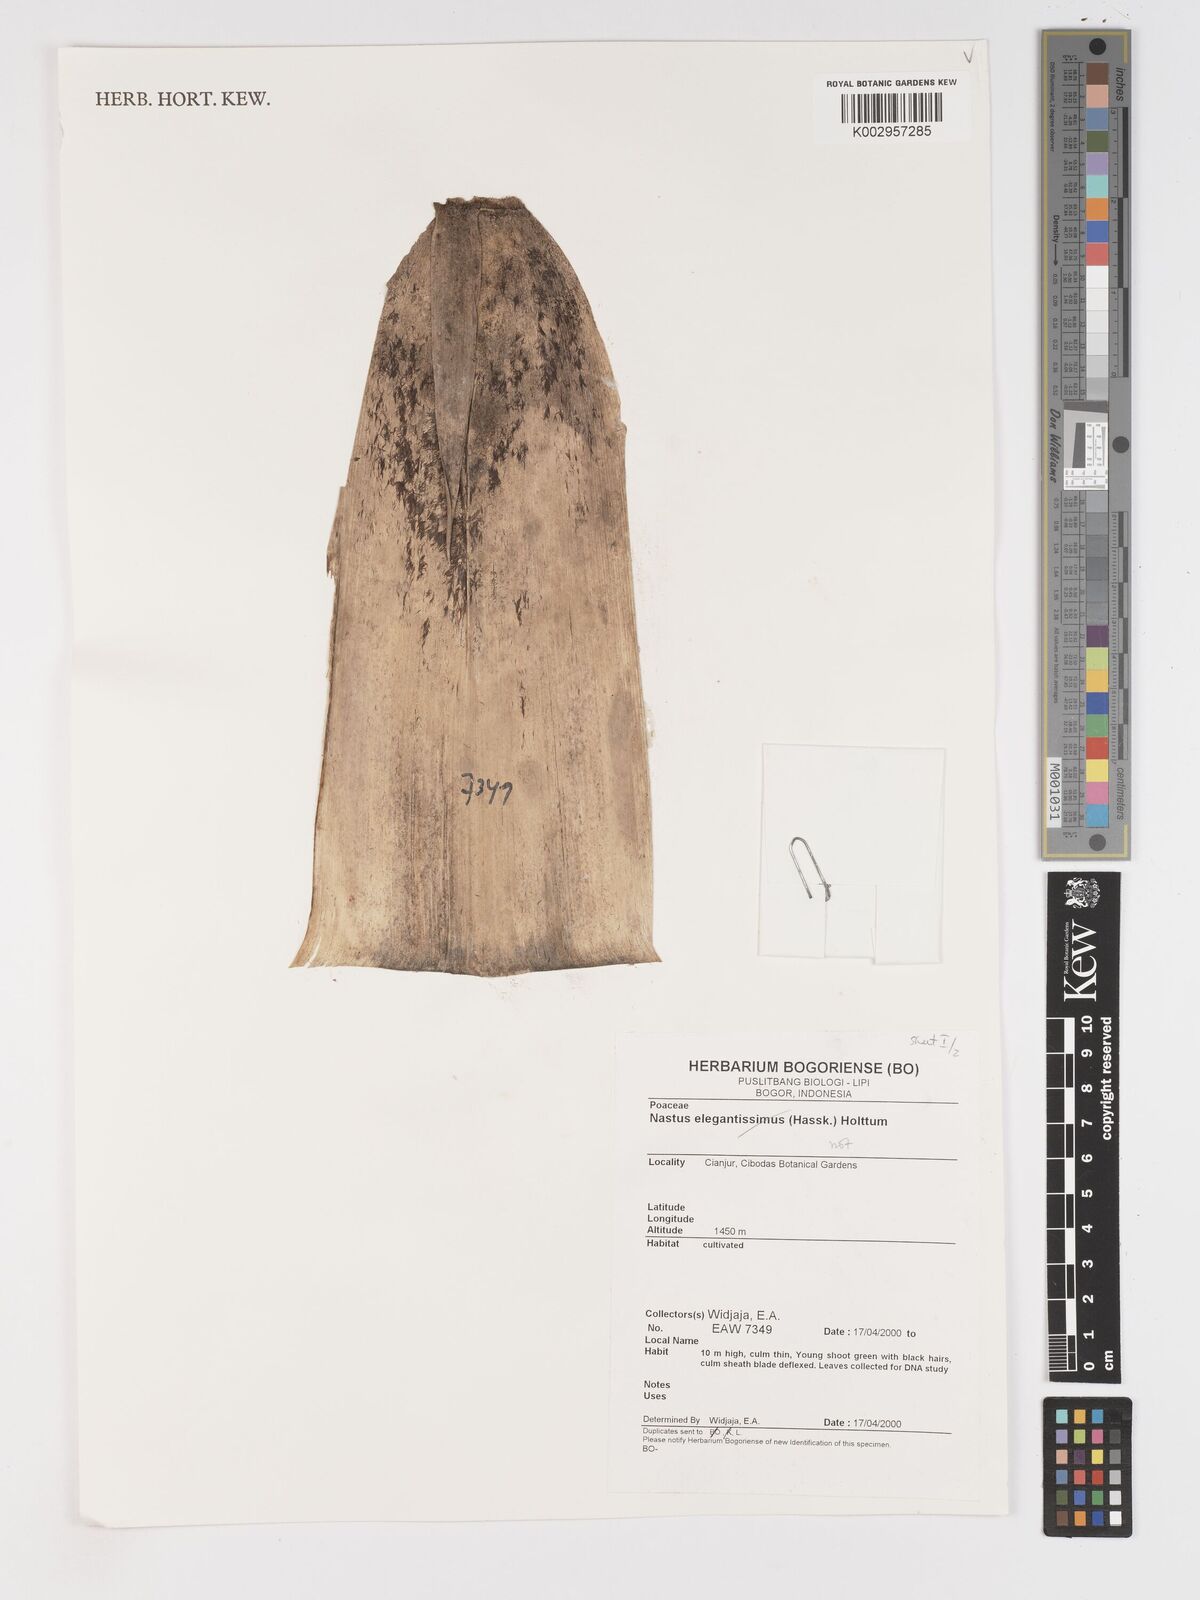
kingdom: Plantae
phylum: Tracheophyta
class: Liliopsida
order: Poales
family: Poaceae
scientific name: Poaceae
